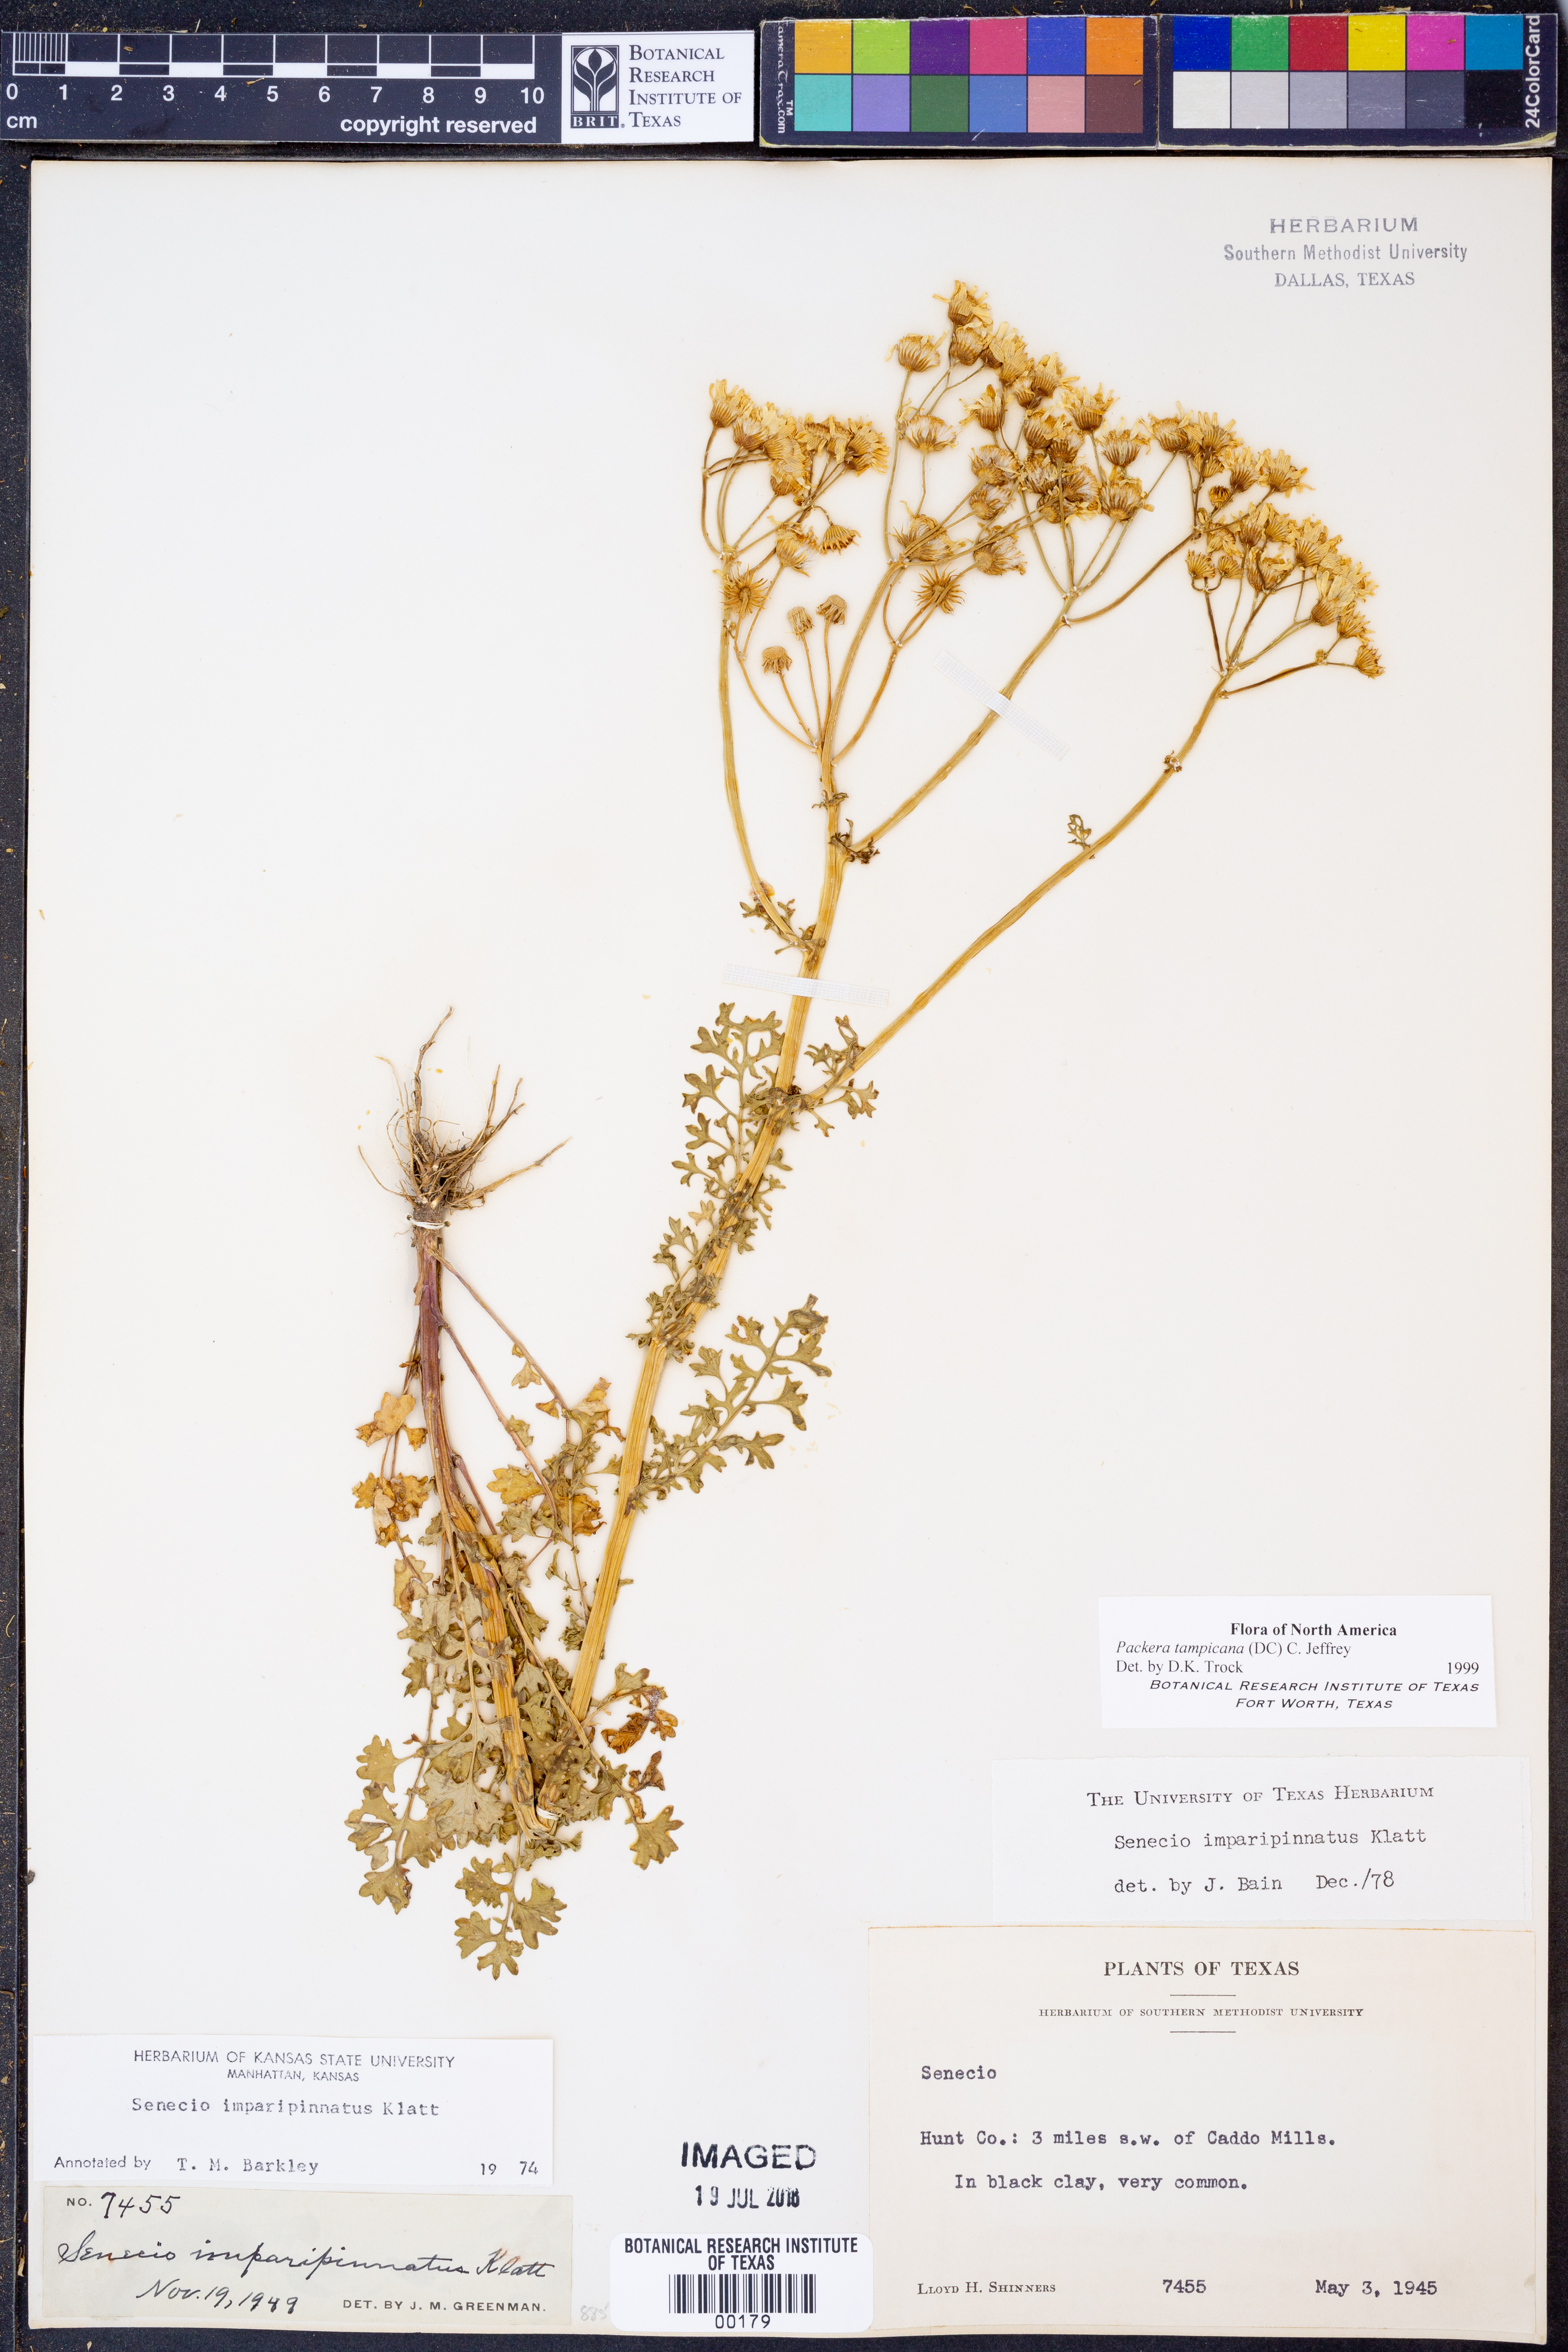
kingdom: Plantae
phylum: Tracheophyta
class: Magnoliopsida
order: Asterales
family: Asteraceae
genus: Packera
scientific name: Packera tampicana
